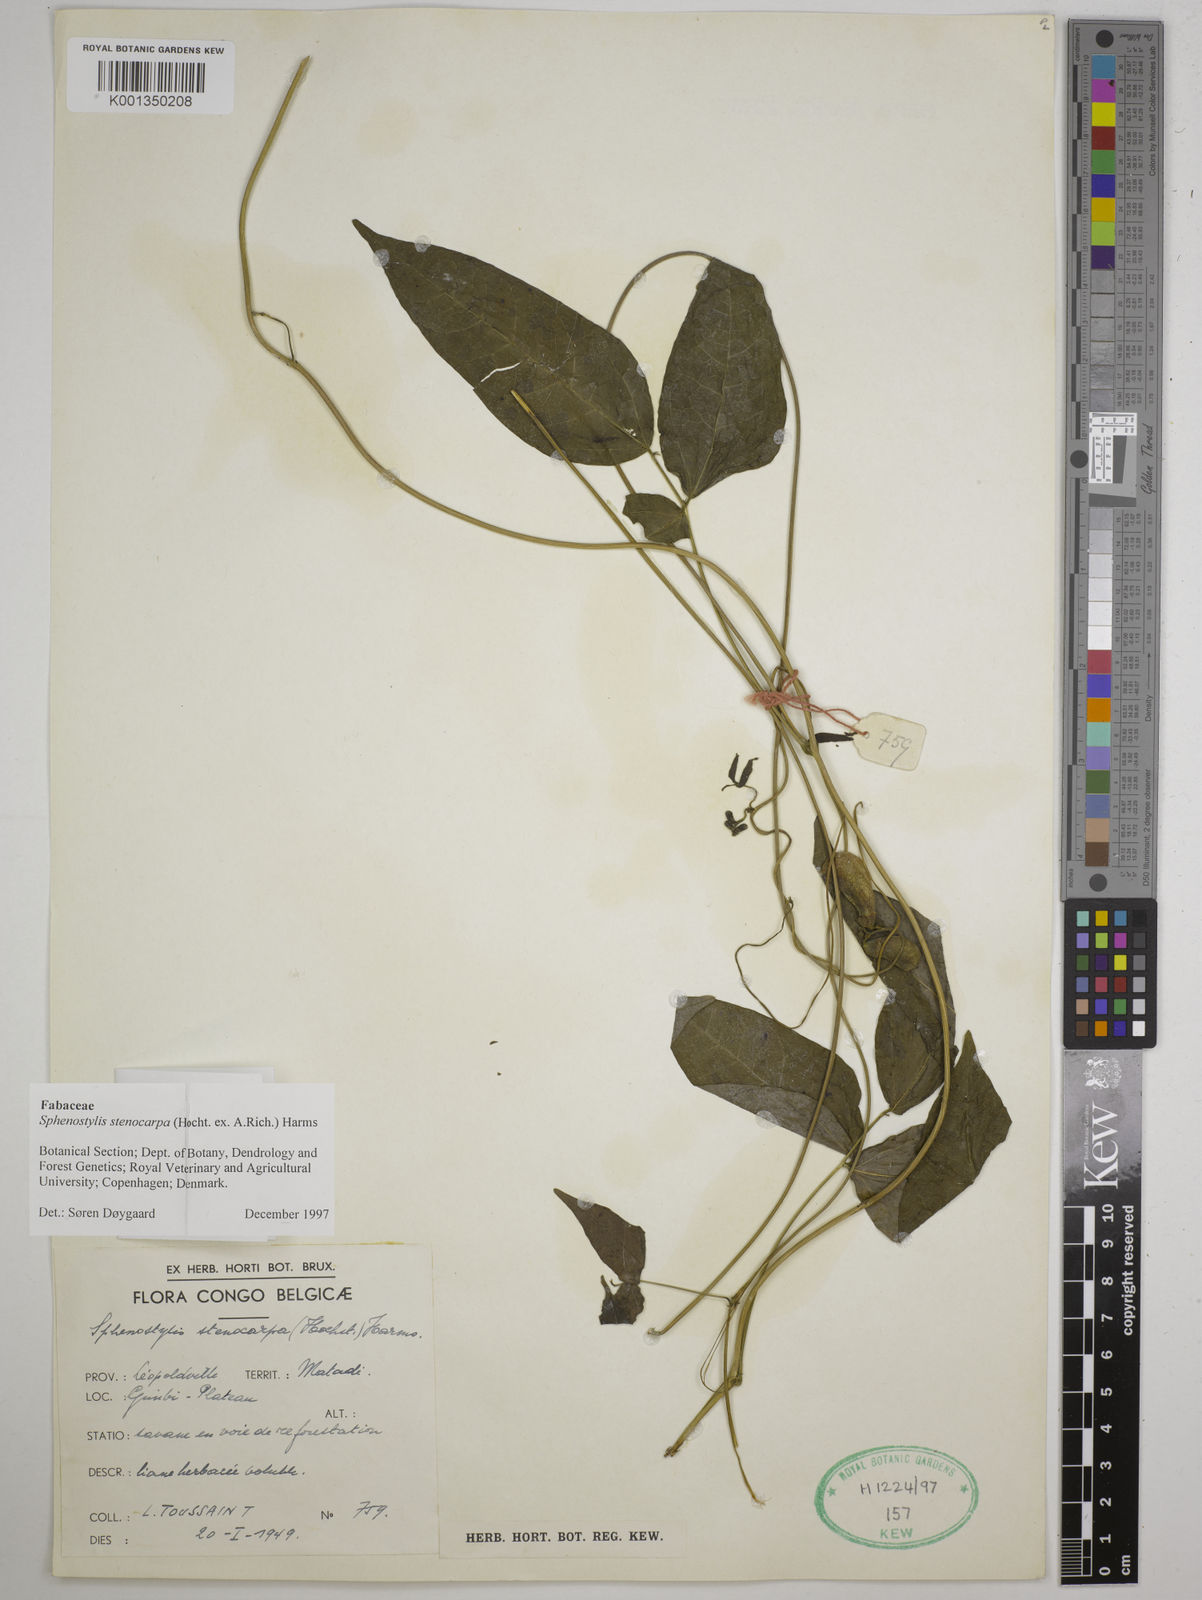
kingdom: Plantae
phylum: Tracheophyta
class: Magnoliopsida
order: Fabales
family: Fabaceae
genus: Sphenostylis
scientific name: Sphenostylis stenocarpa
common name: Yam-pea
